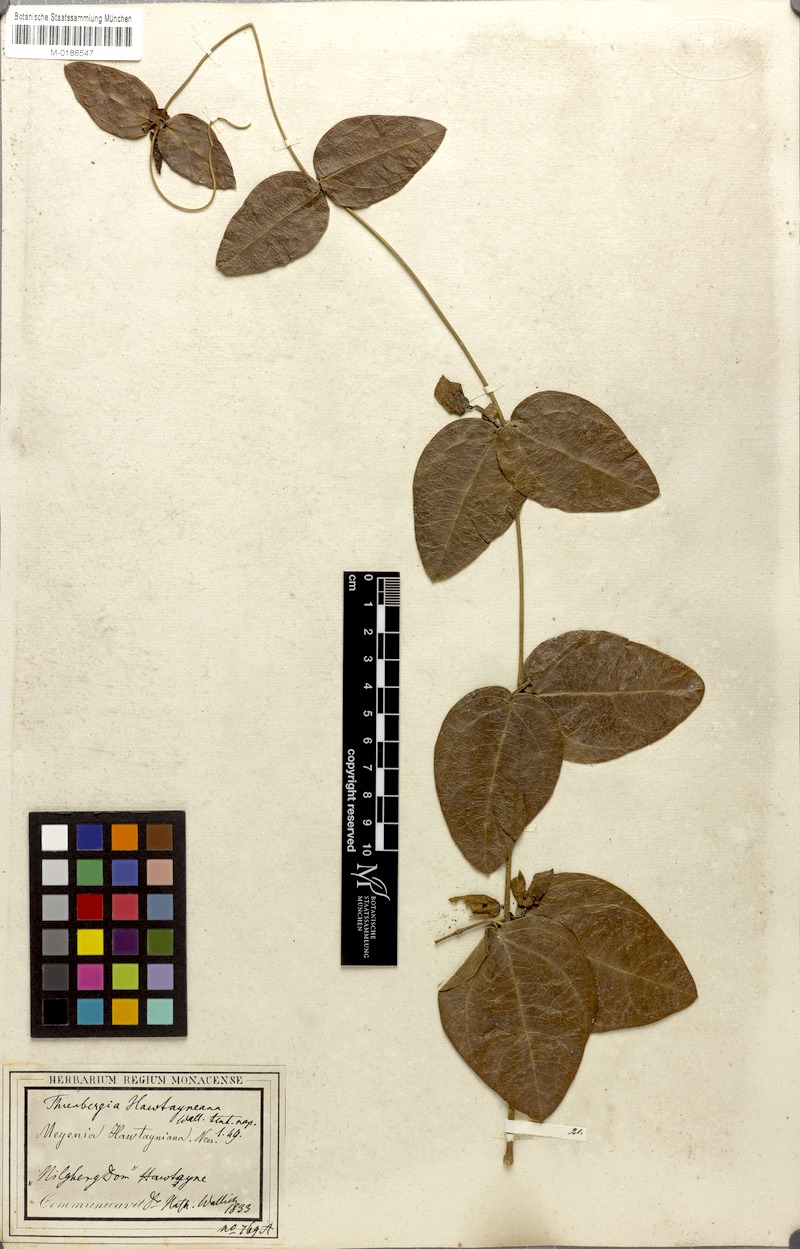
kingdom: Plantae
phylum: Tracheophyta
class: Magnoliopsida
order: Lamiales
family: Acanthaceae
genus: Meyenia
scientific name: Meyenia hawtayneana
